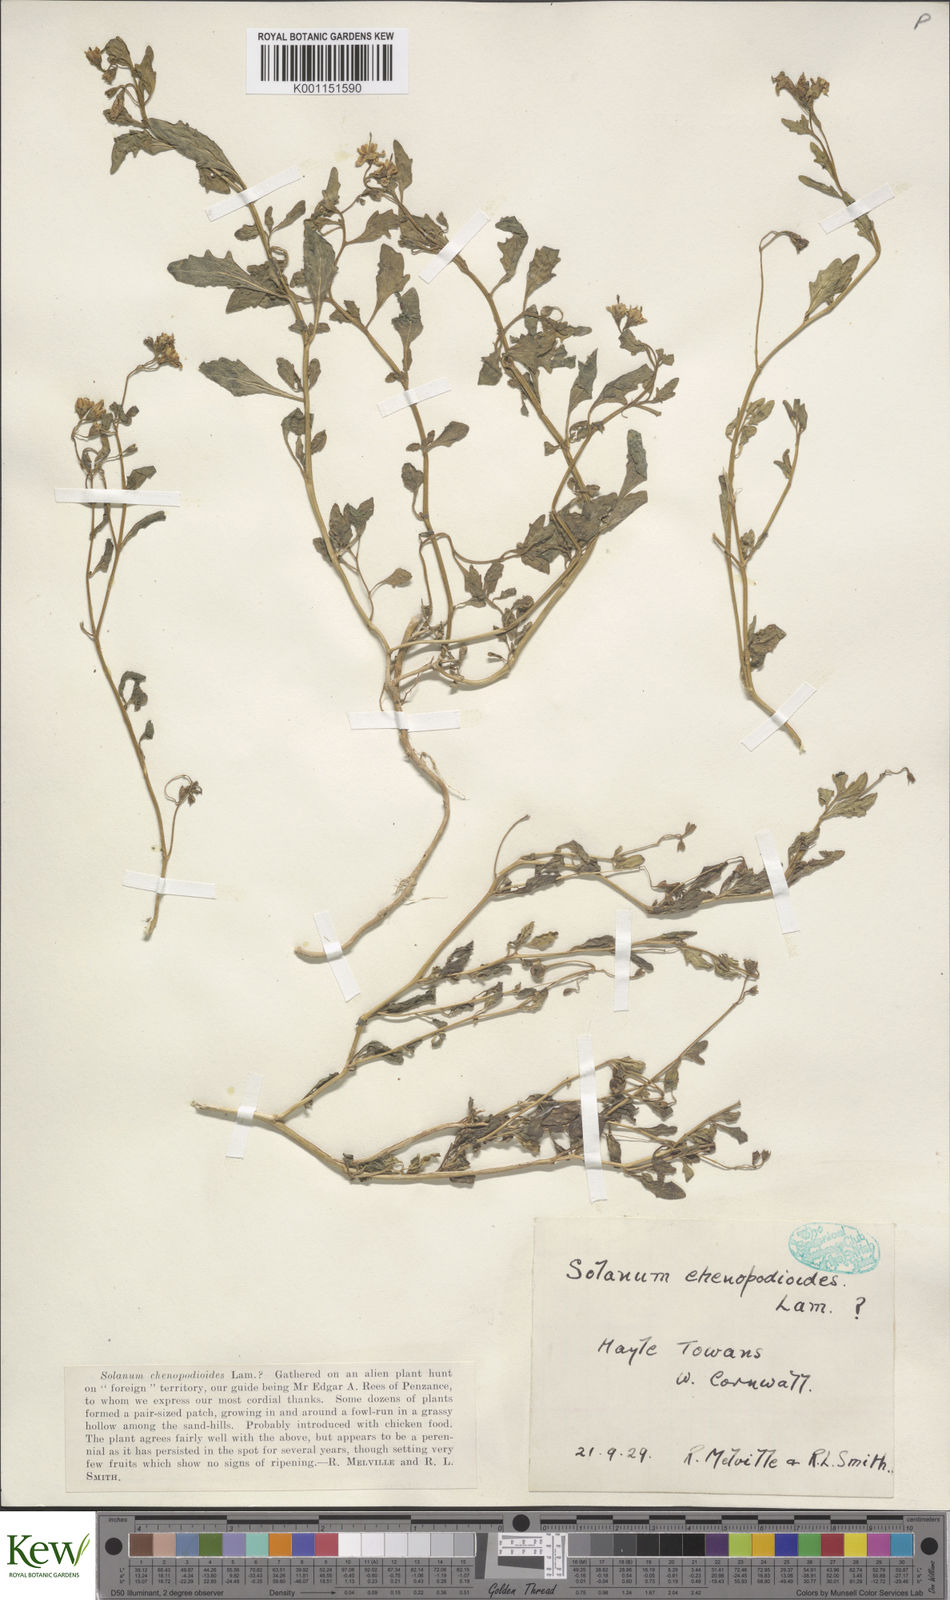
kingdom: Plantae
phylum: Tracheophyta
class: Magnoliopsida
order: Solanales
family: Solanaceae
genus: Solanum
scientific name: Solanum pygmaeum
